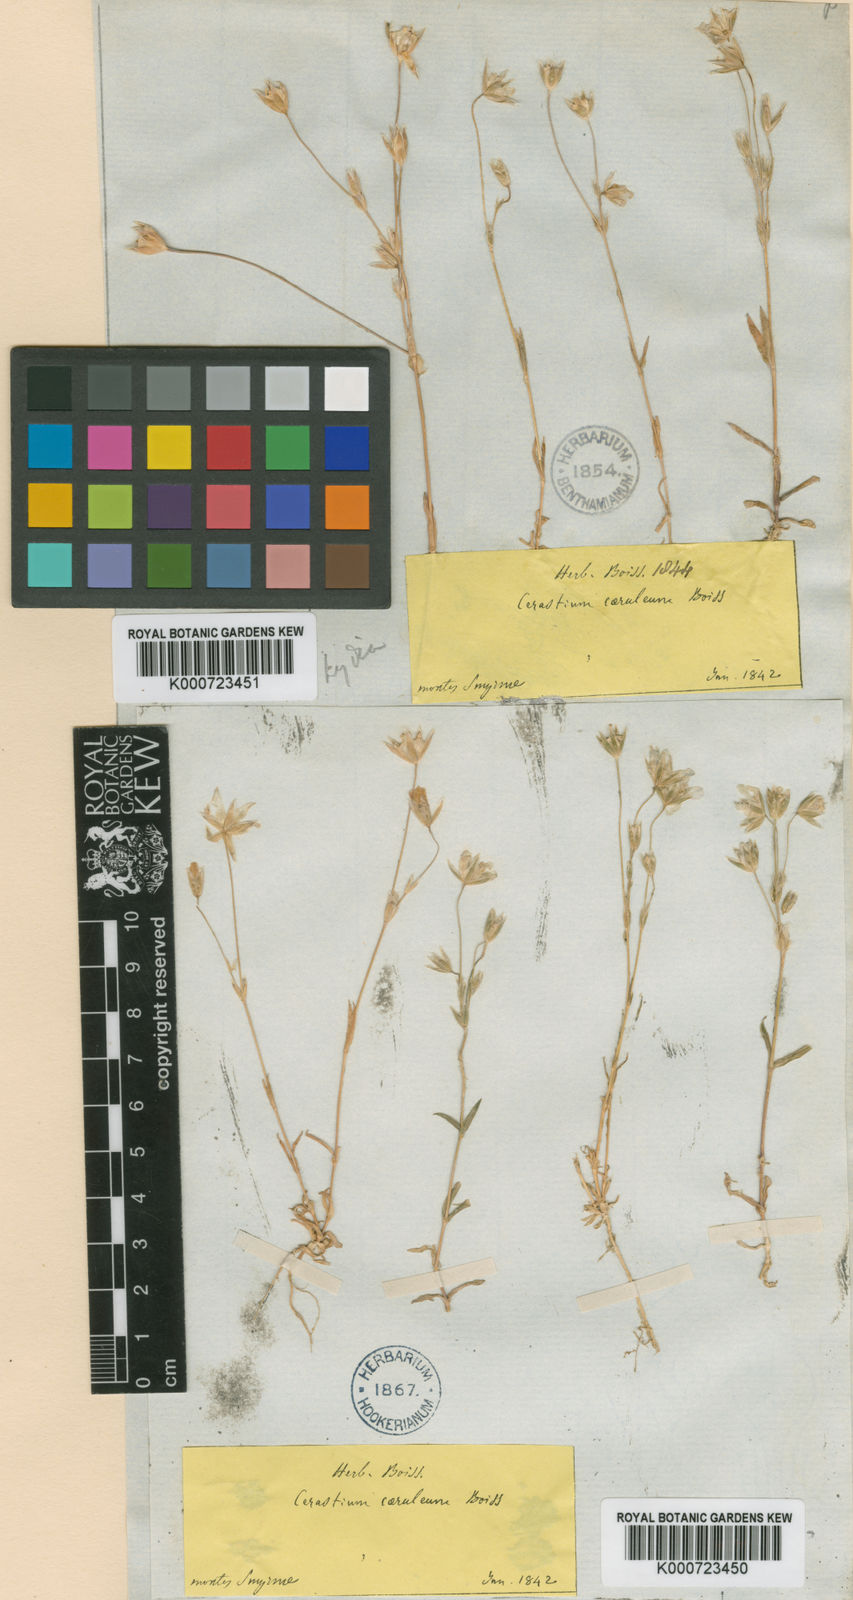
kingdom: Plantae
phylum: Tracheophyta
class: Magnoliopsida
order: Caryophyllales
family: Caryophyllaceae
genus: Moenchia
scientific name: Moenchia
